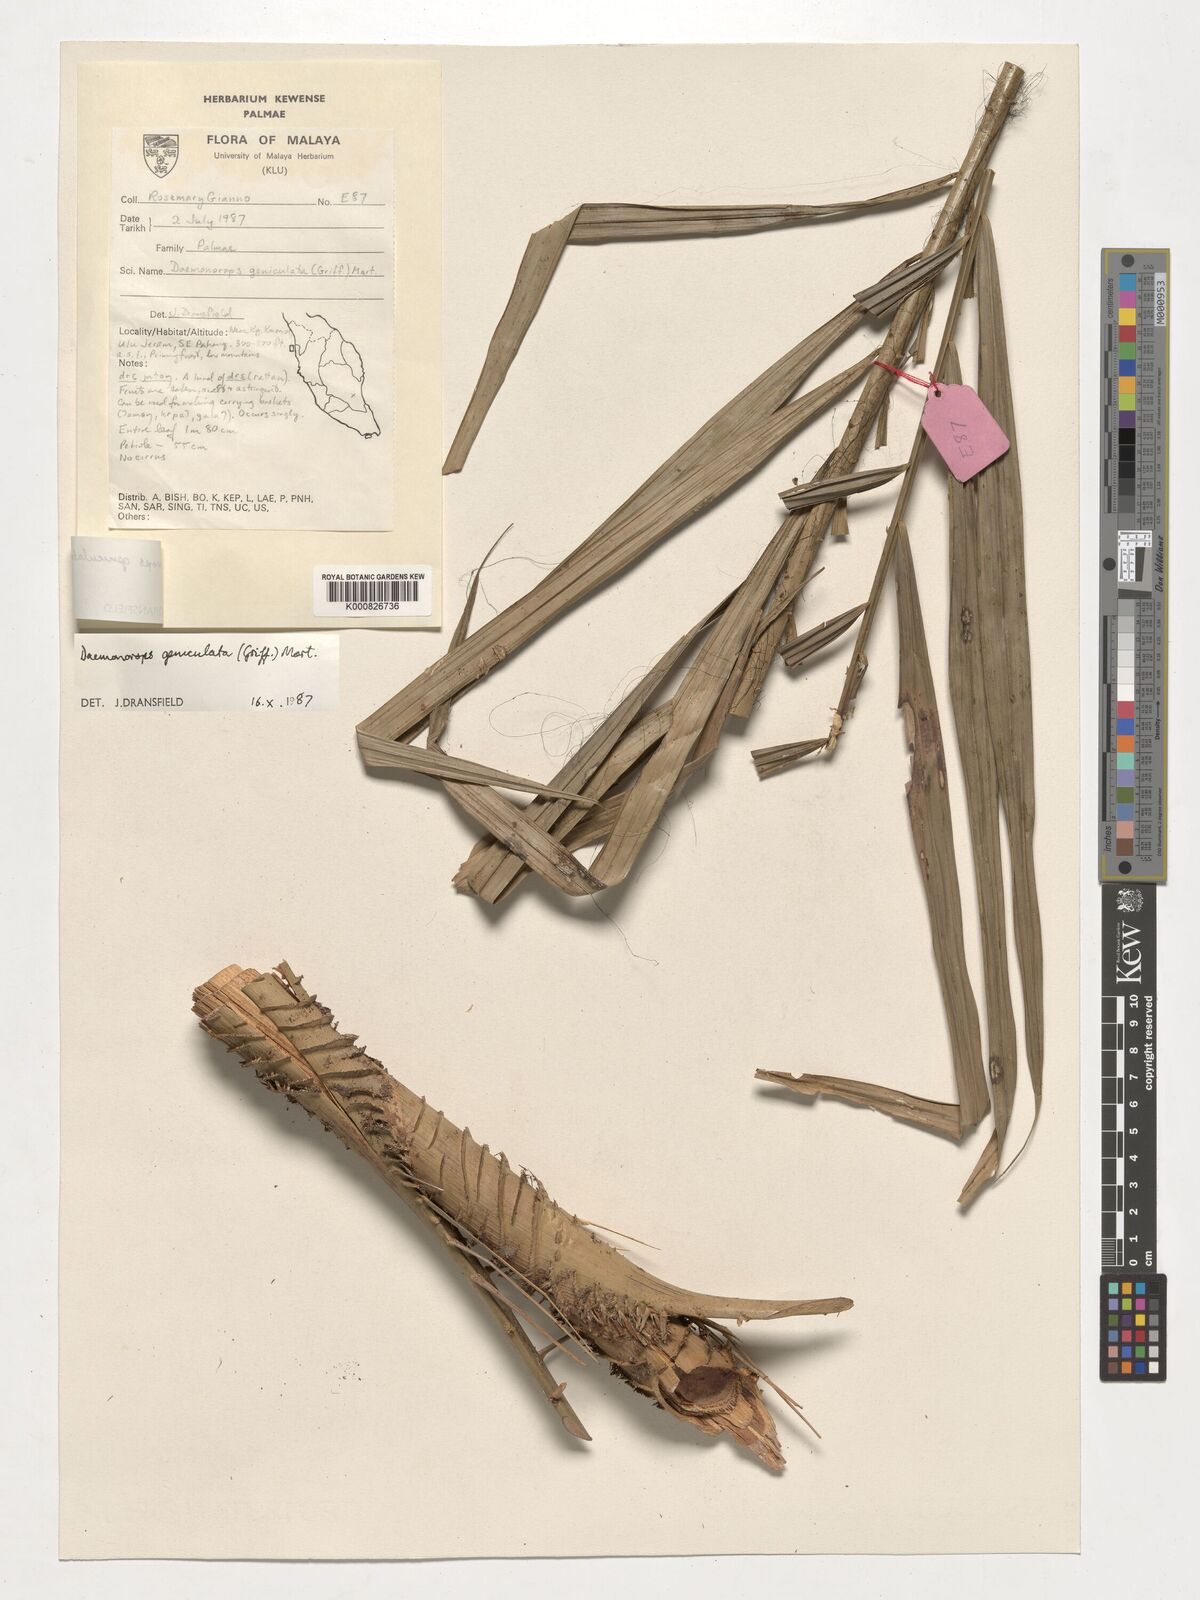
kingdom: Plantae
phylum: Tracheophyta
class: Liliopsida
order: Arecales
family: Arecaceae
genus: Calamus
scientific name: Calamus geniculatus
